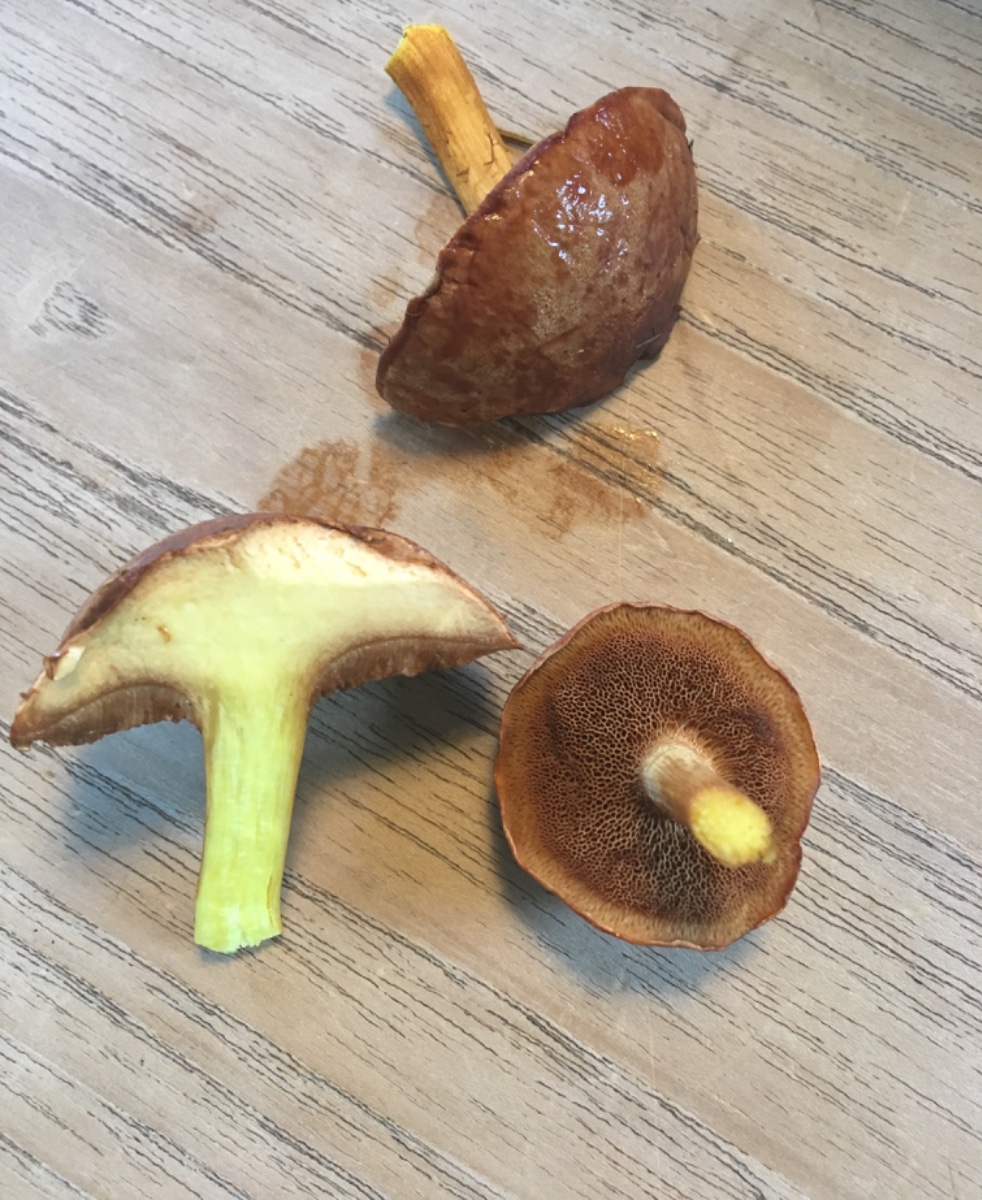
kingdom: Fungi
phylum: Basidiomycota
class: Agaricomycetes
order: Boletales
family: Boletaceae
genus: Chalciporus
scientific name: Chalciporus piperatus
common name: peberrørhat
